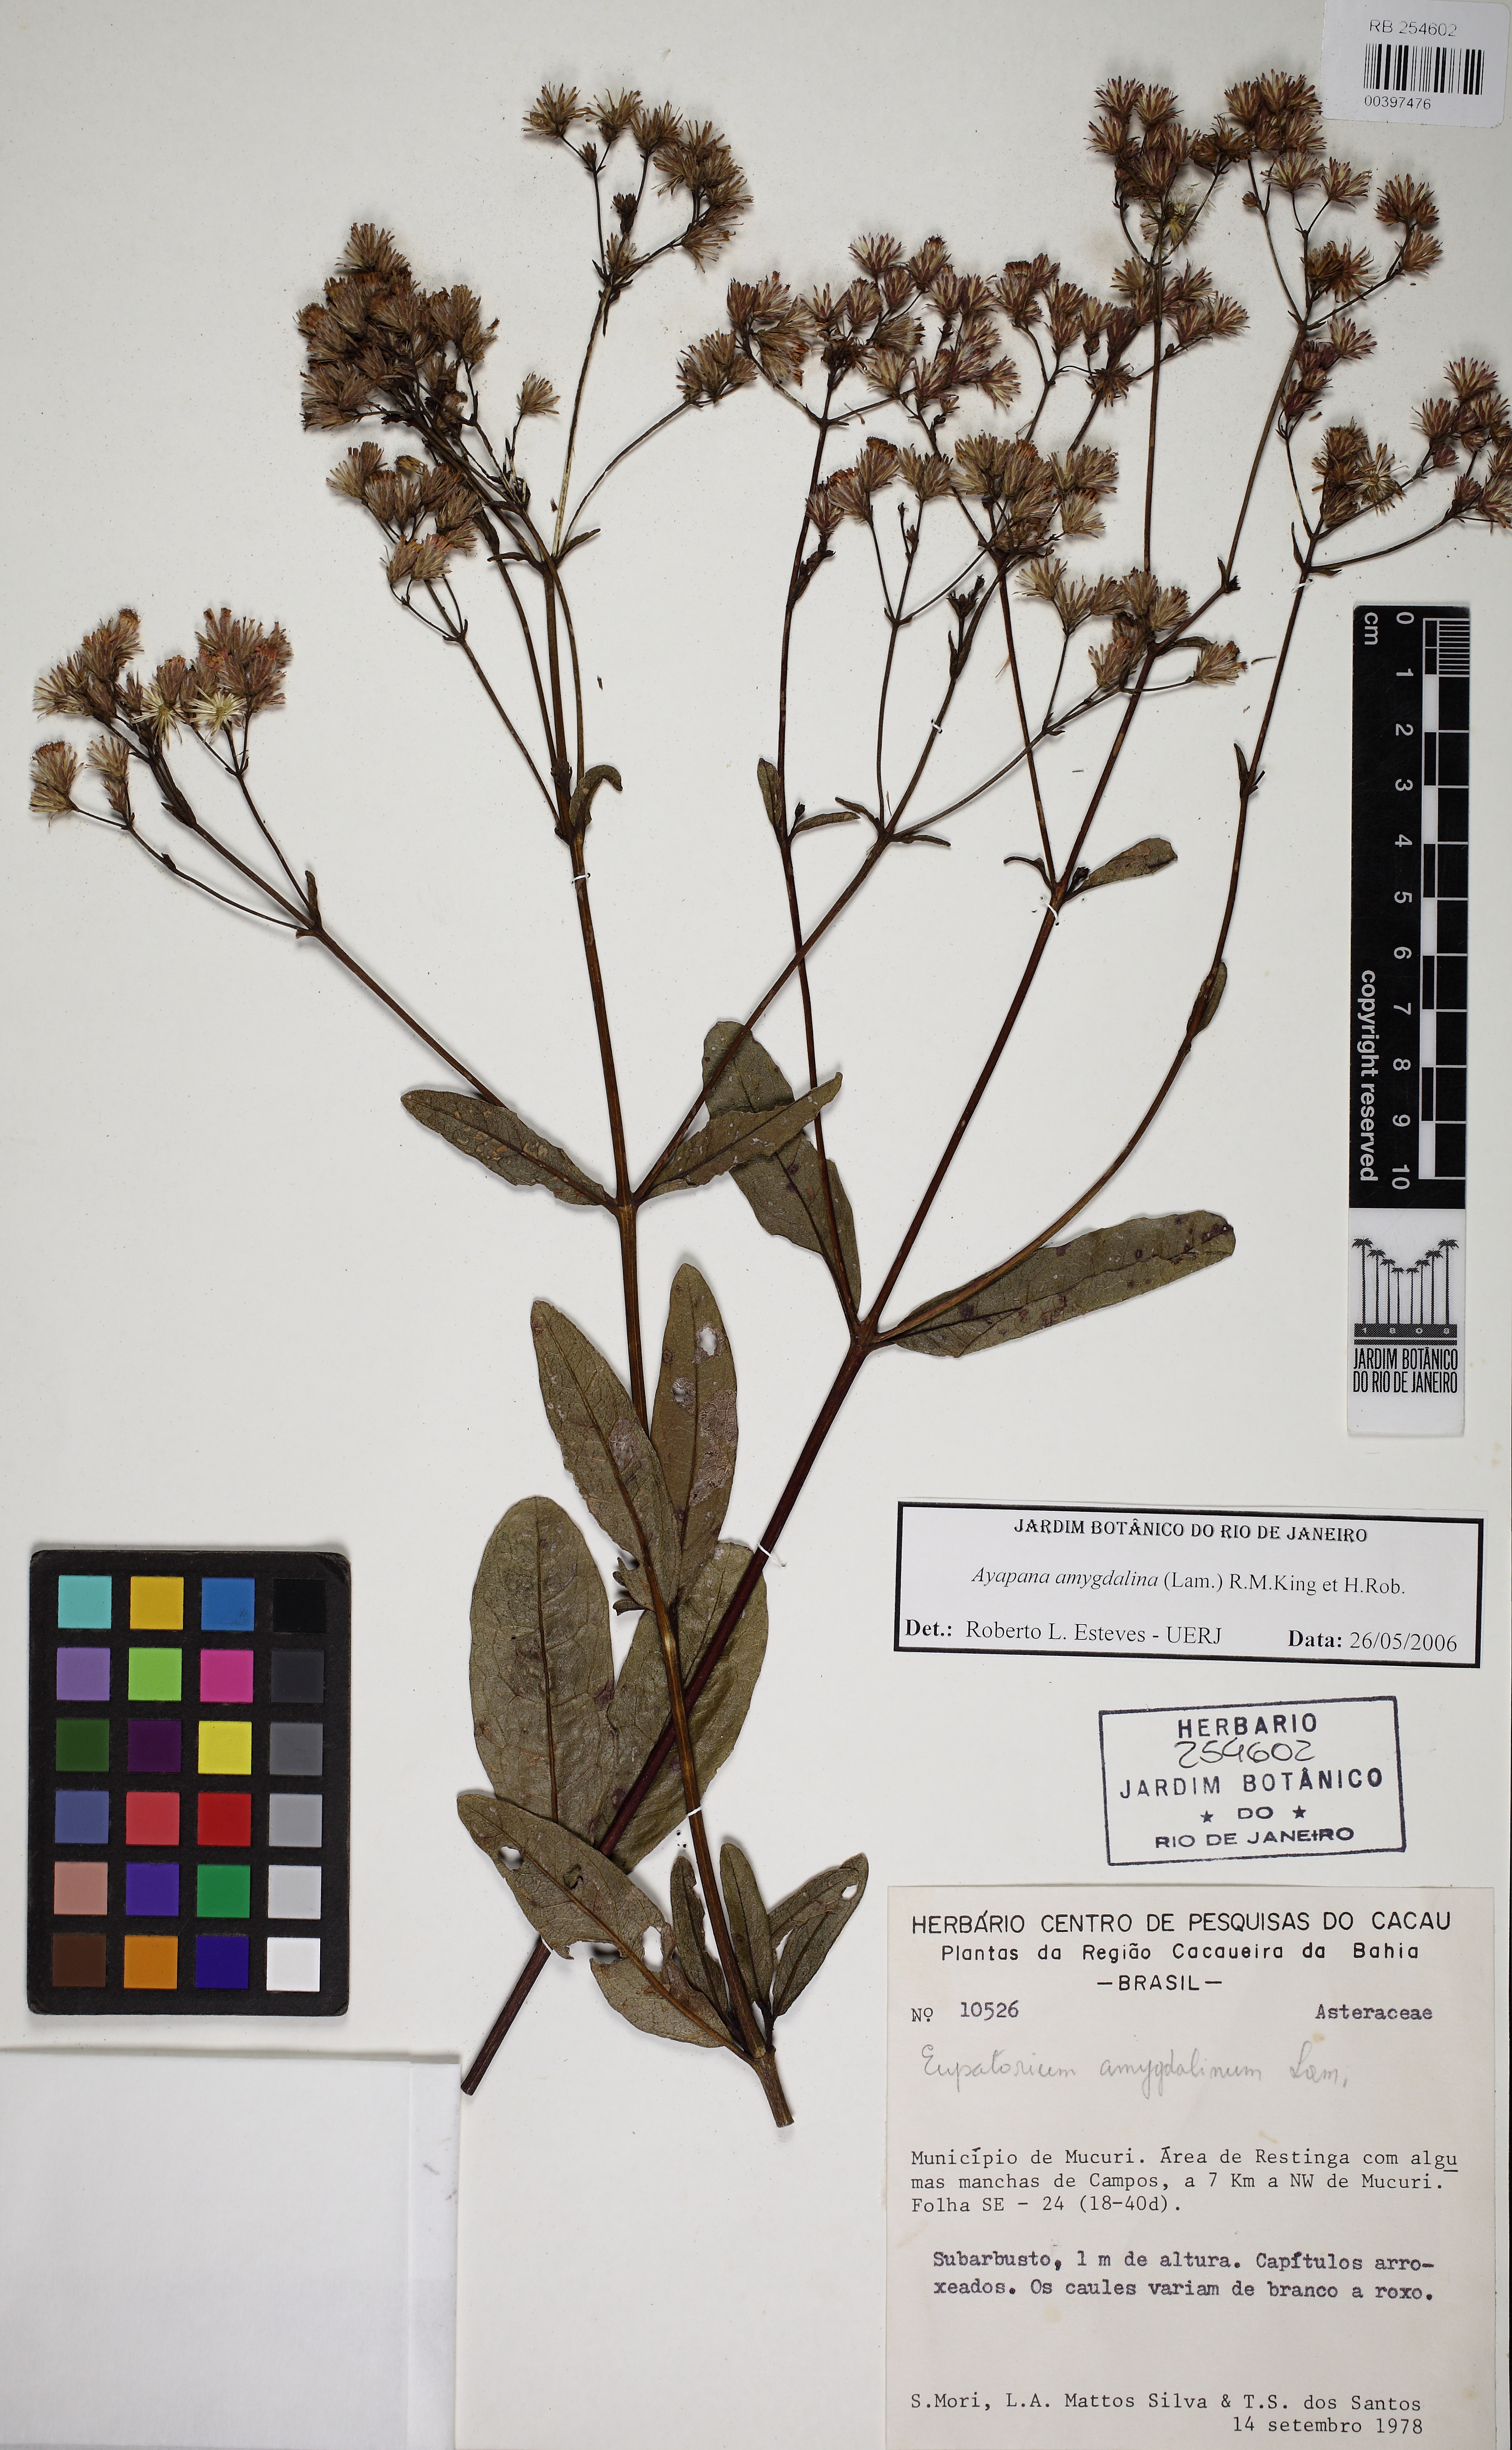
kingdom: Plantae
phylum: Tracheophyta
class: Magnoliopsida
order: Asterales
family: Asteraceae
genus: Ayapana
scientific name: Ayapana amygdalina
